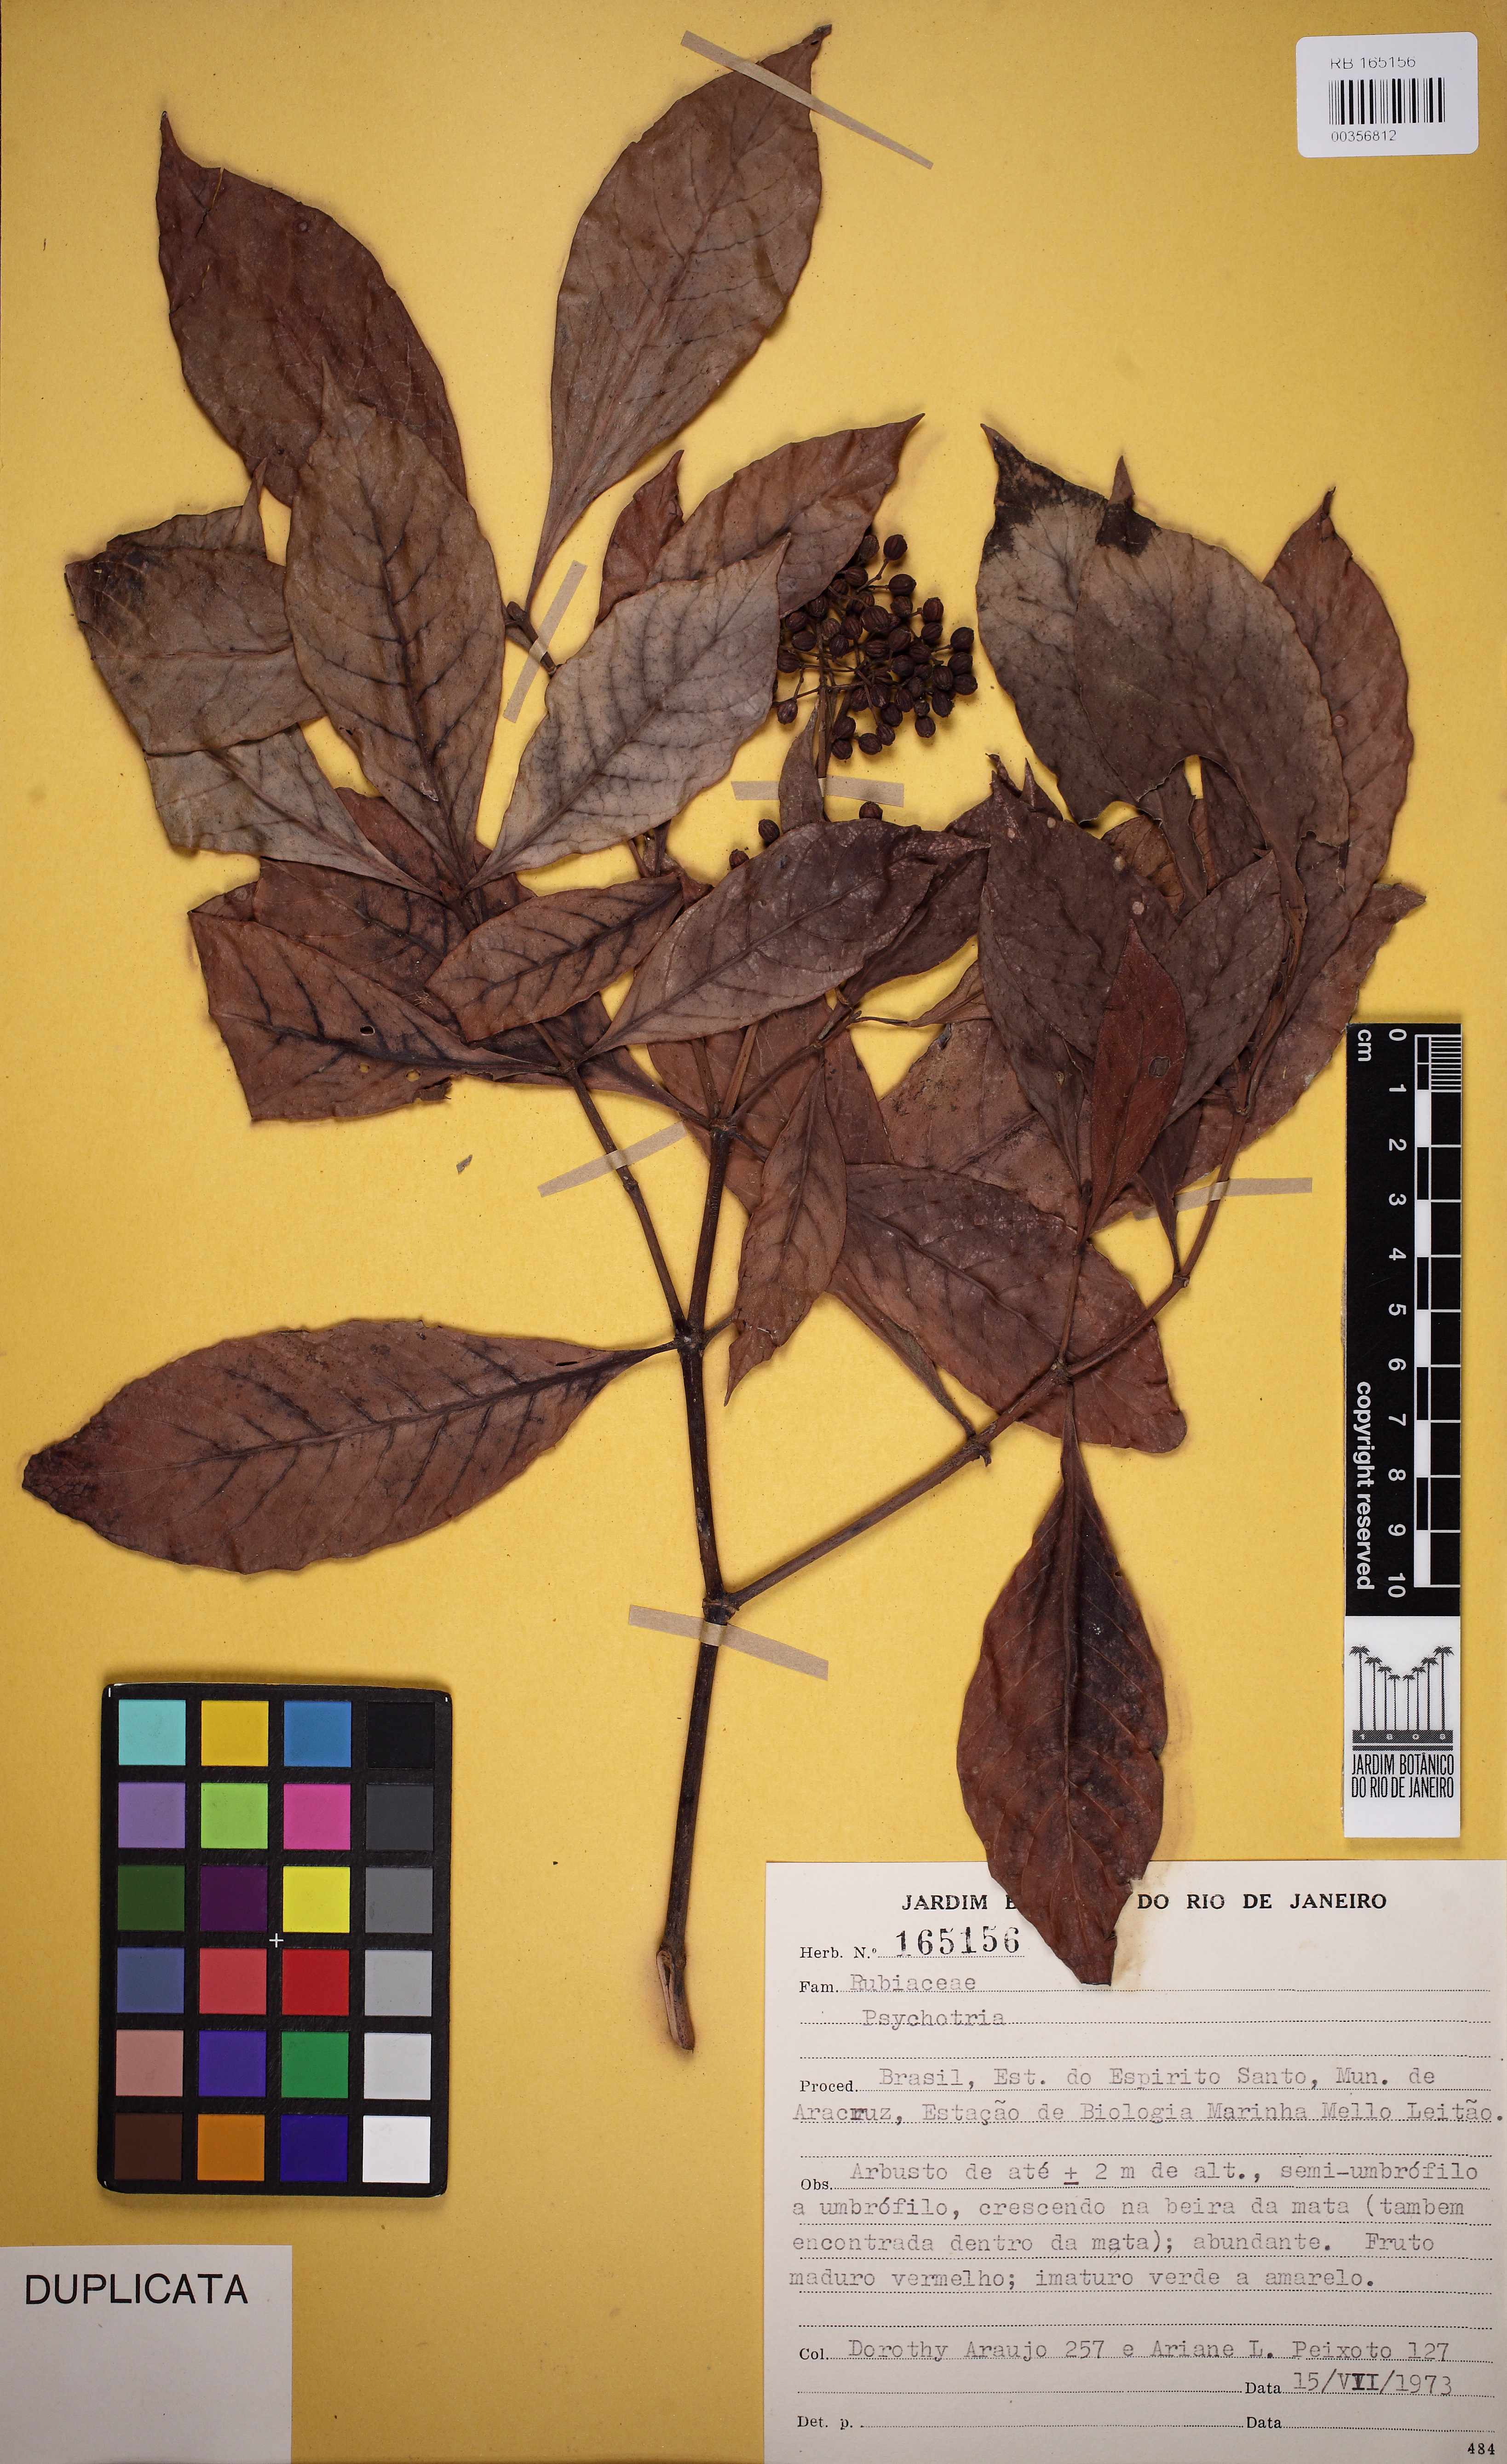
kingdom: Plantae
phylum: Tracheophyta
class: Magnoliopsida
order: Gentianales
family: Rubiaceae
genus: Psychotria
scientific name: Psychotria carthagenensis
